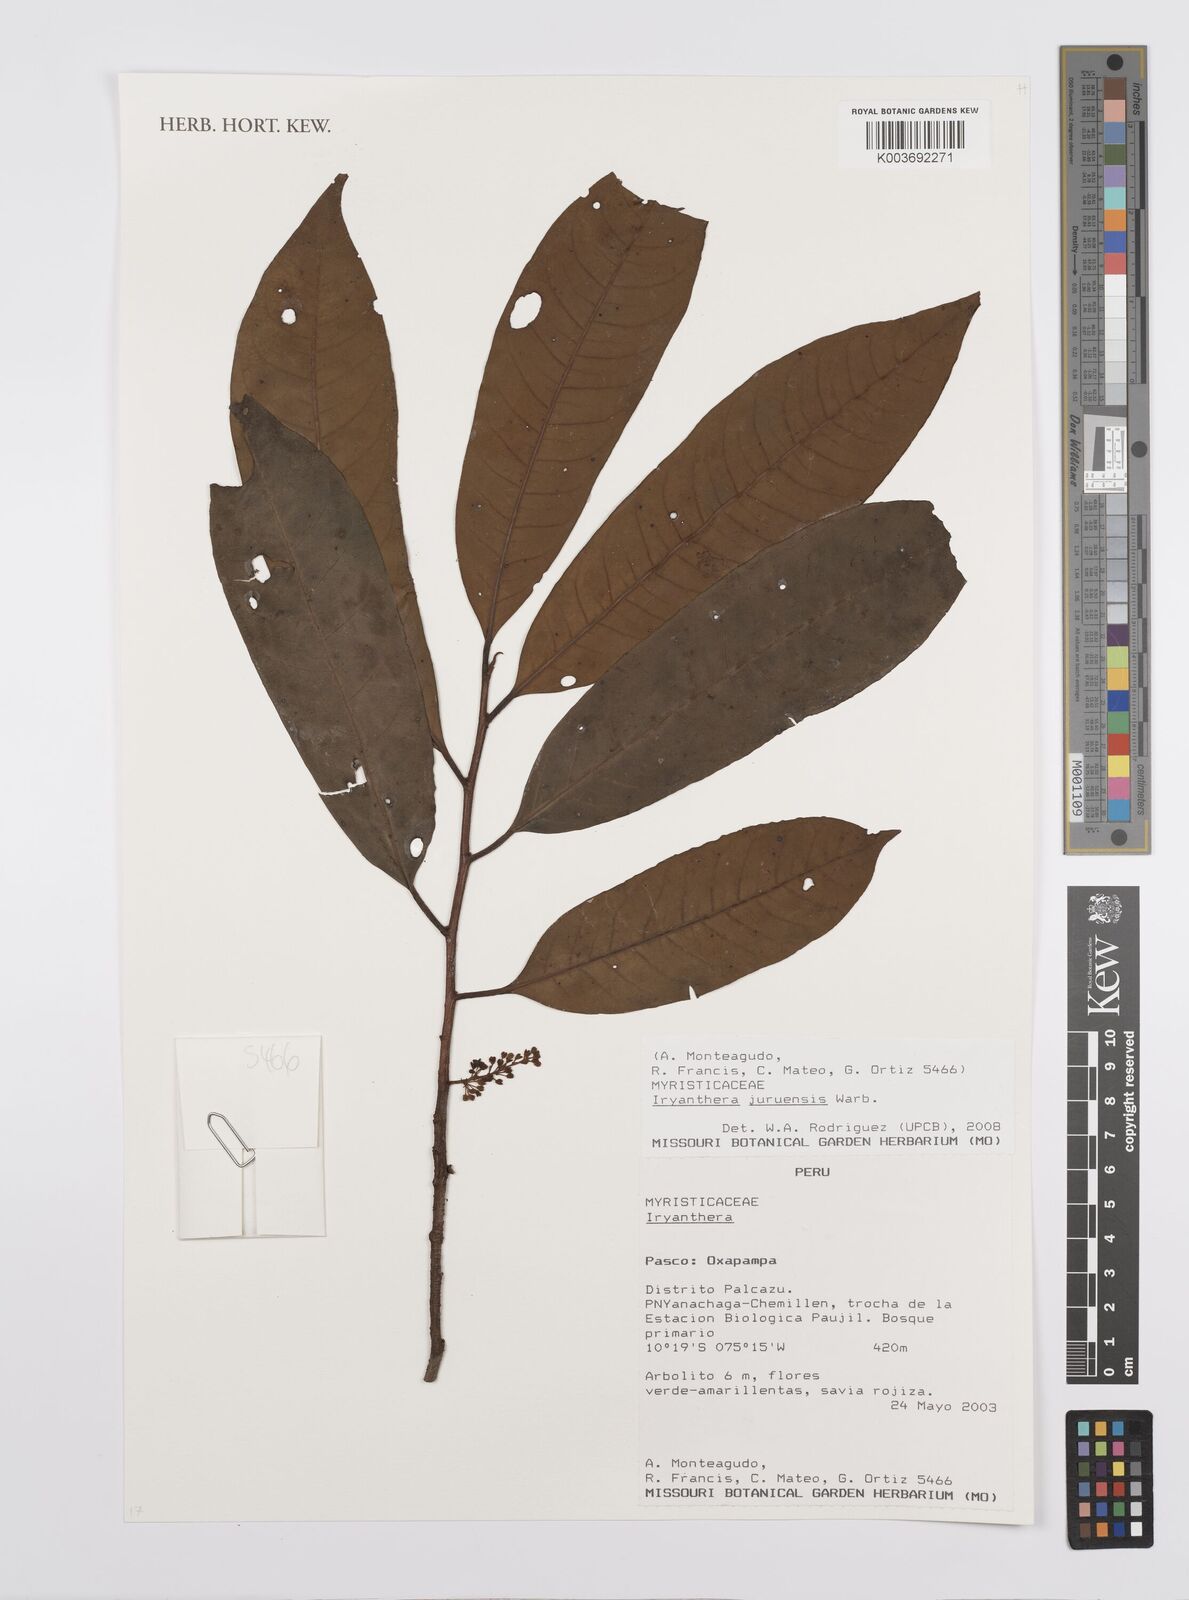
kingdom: Plantae
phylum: Tracheophyta
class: Magnoliopsida
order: Magnoliales
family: Myristicaceae
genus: Iryanthera
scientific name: Iryanthera juruensis
